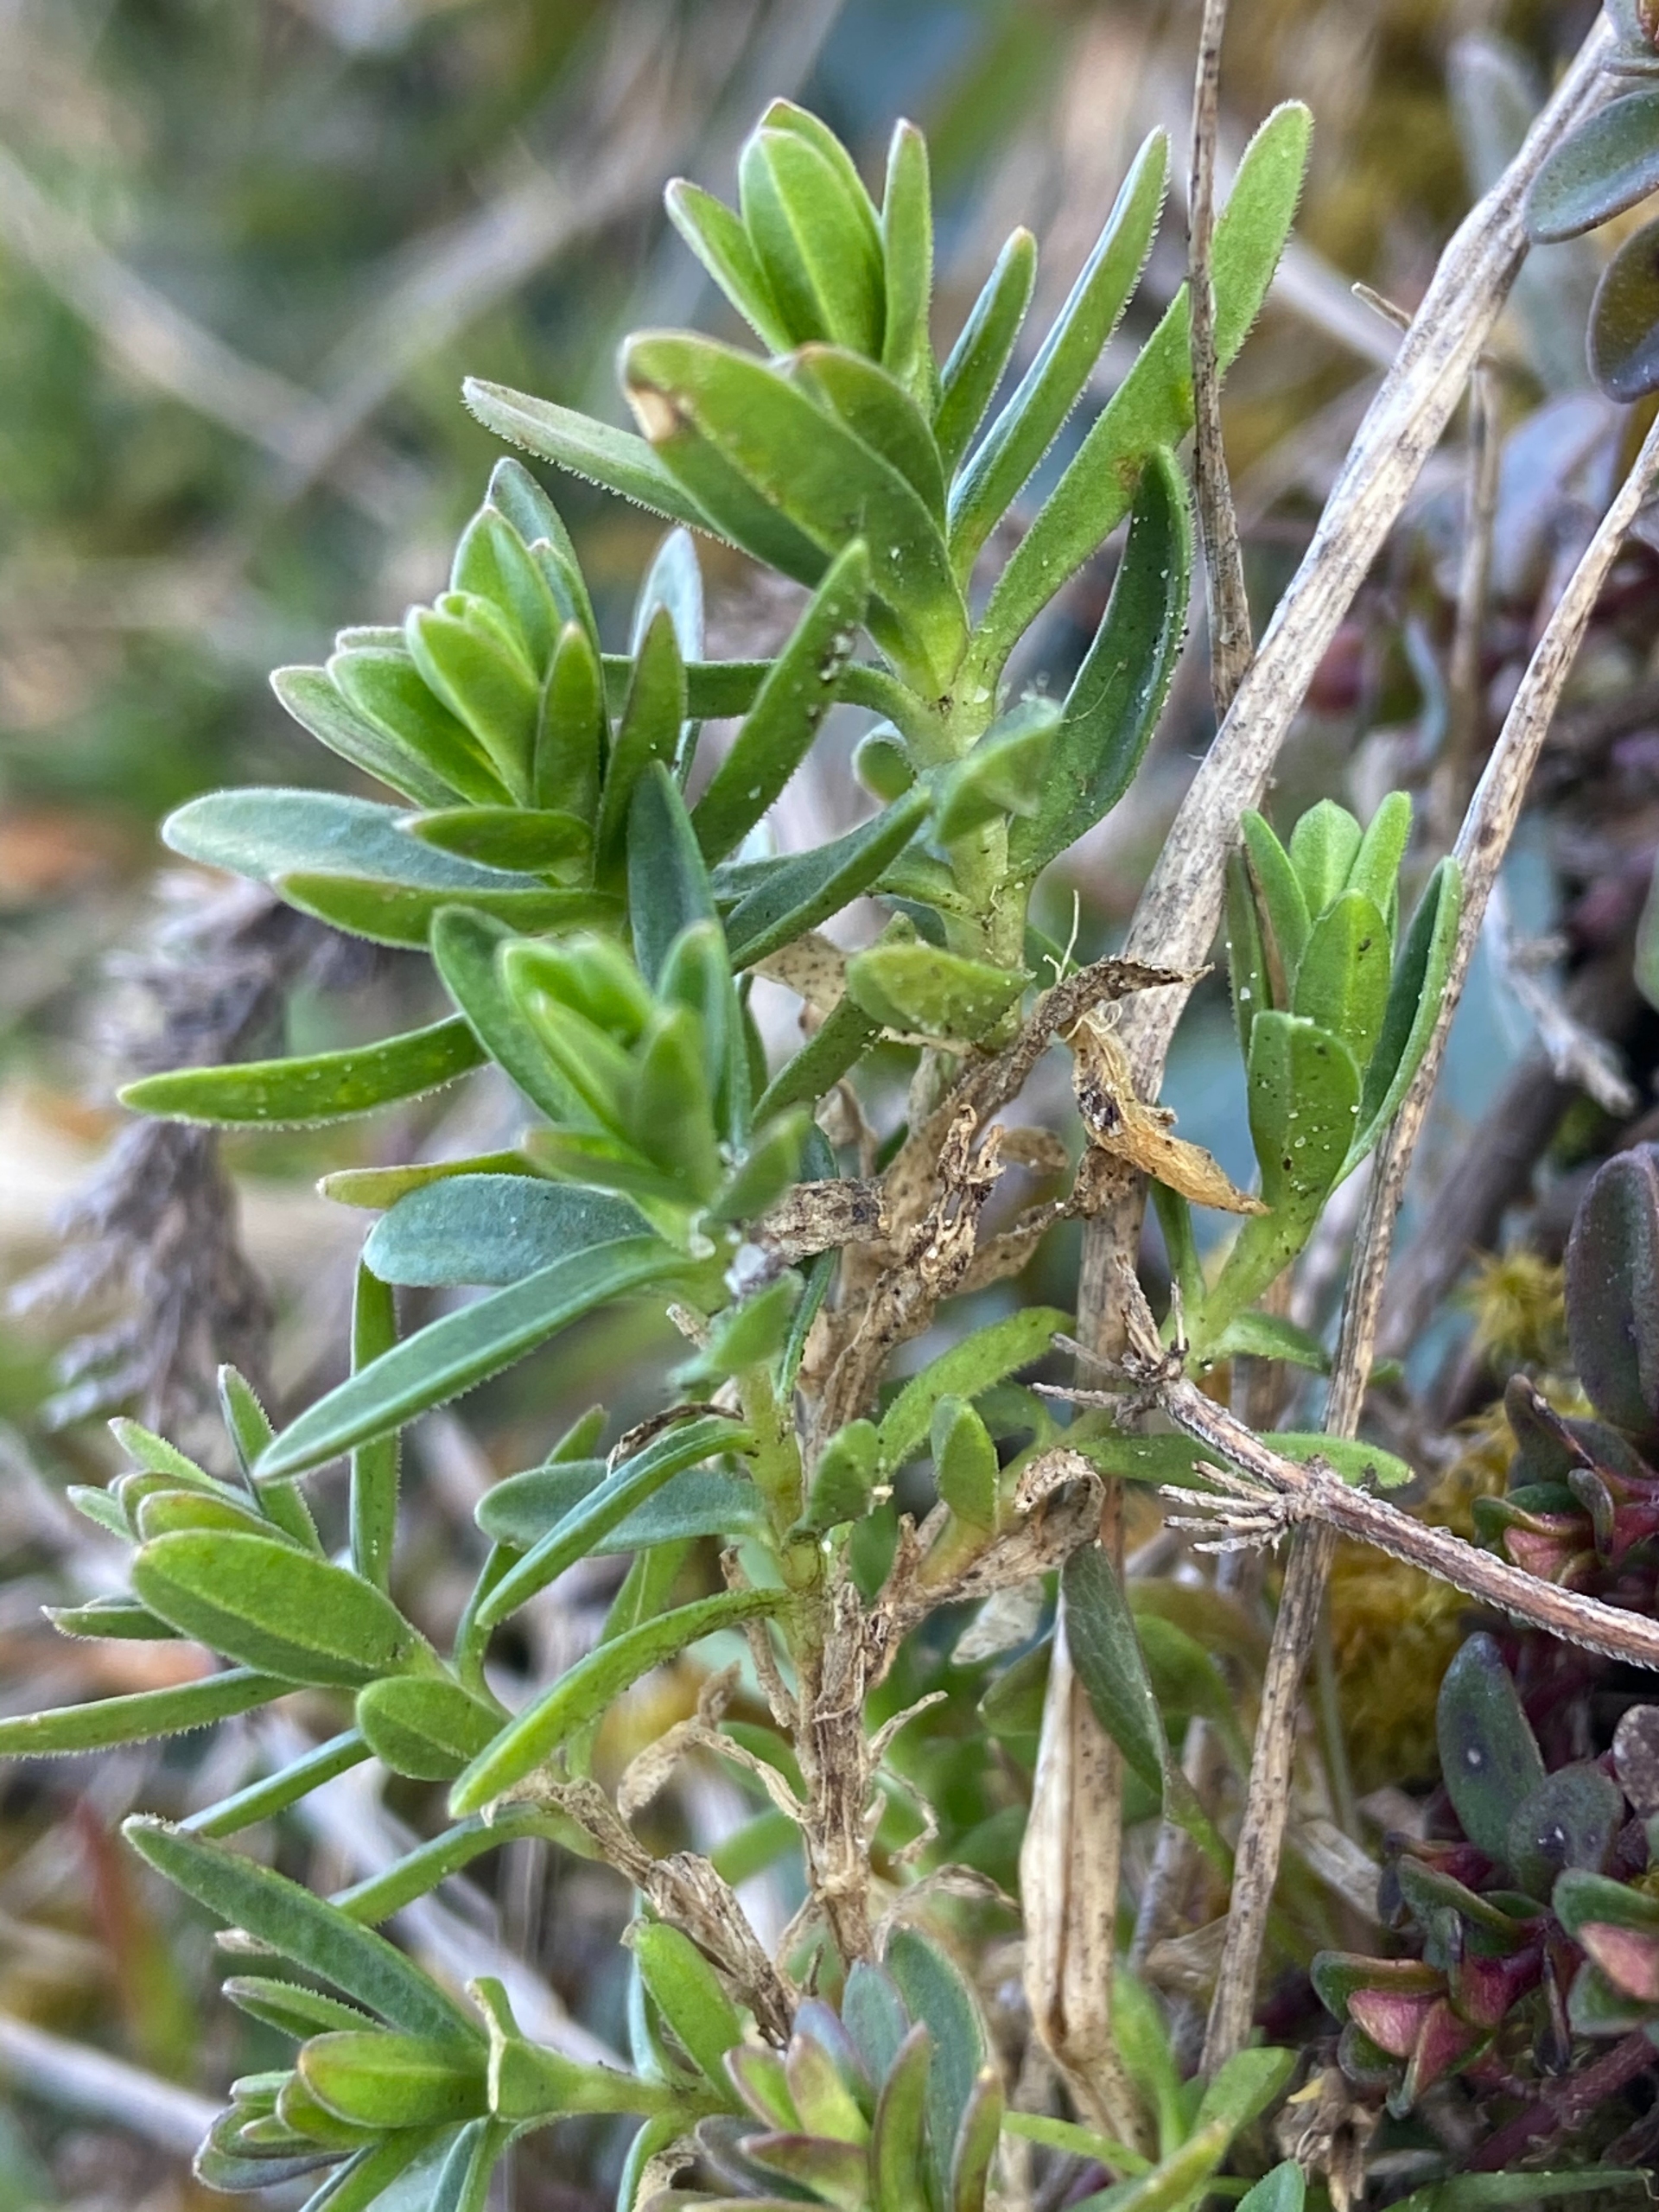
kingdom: Plantae
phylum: Tracheophyta
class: Magnoliopsida
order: Caryophyllales
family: Caryophyllaceae
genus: Dianthus
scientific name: Dianthus deltoides
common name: Bakke-nellike
